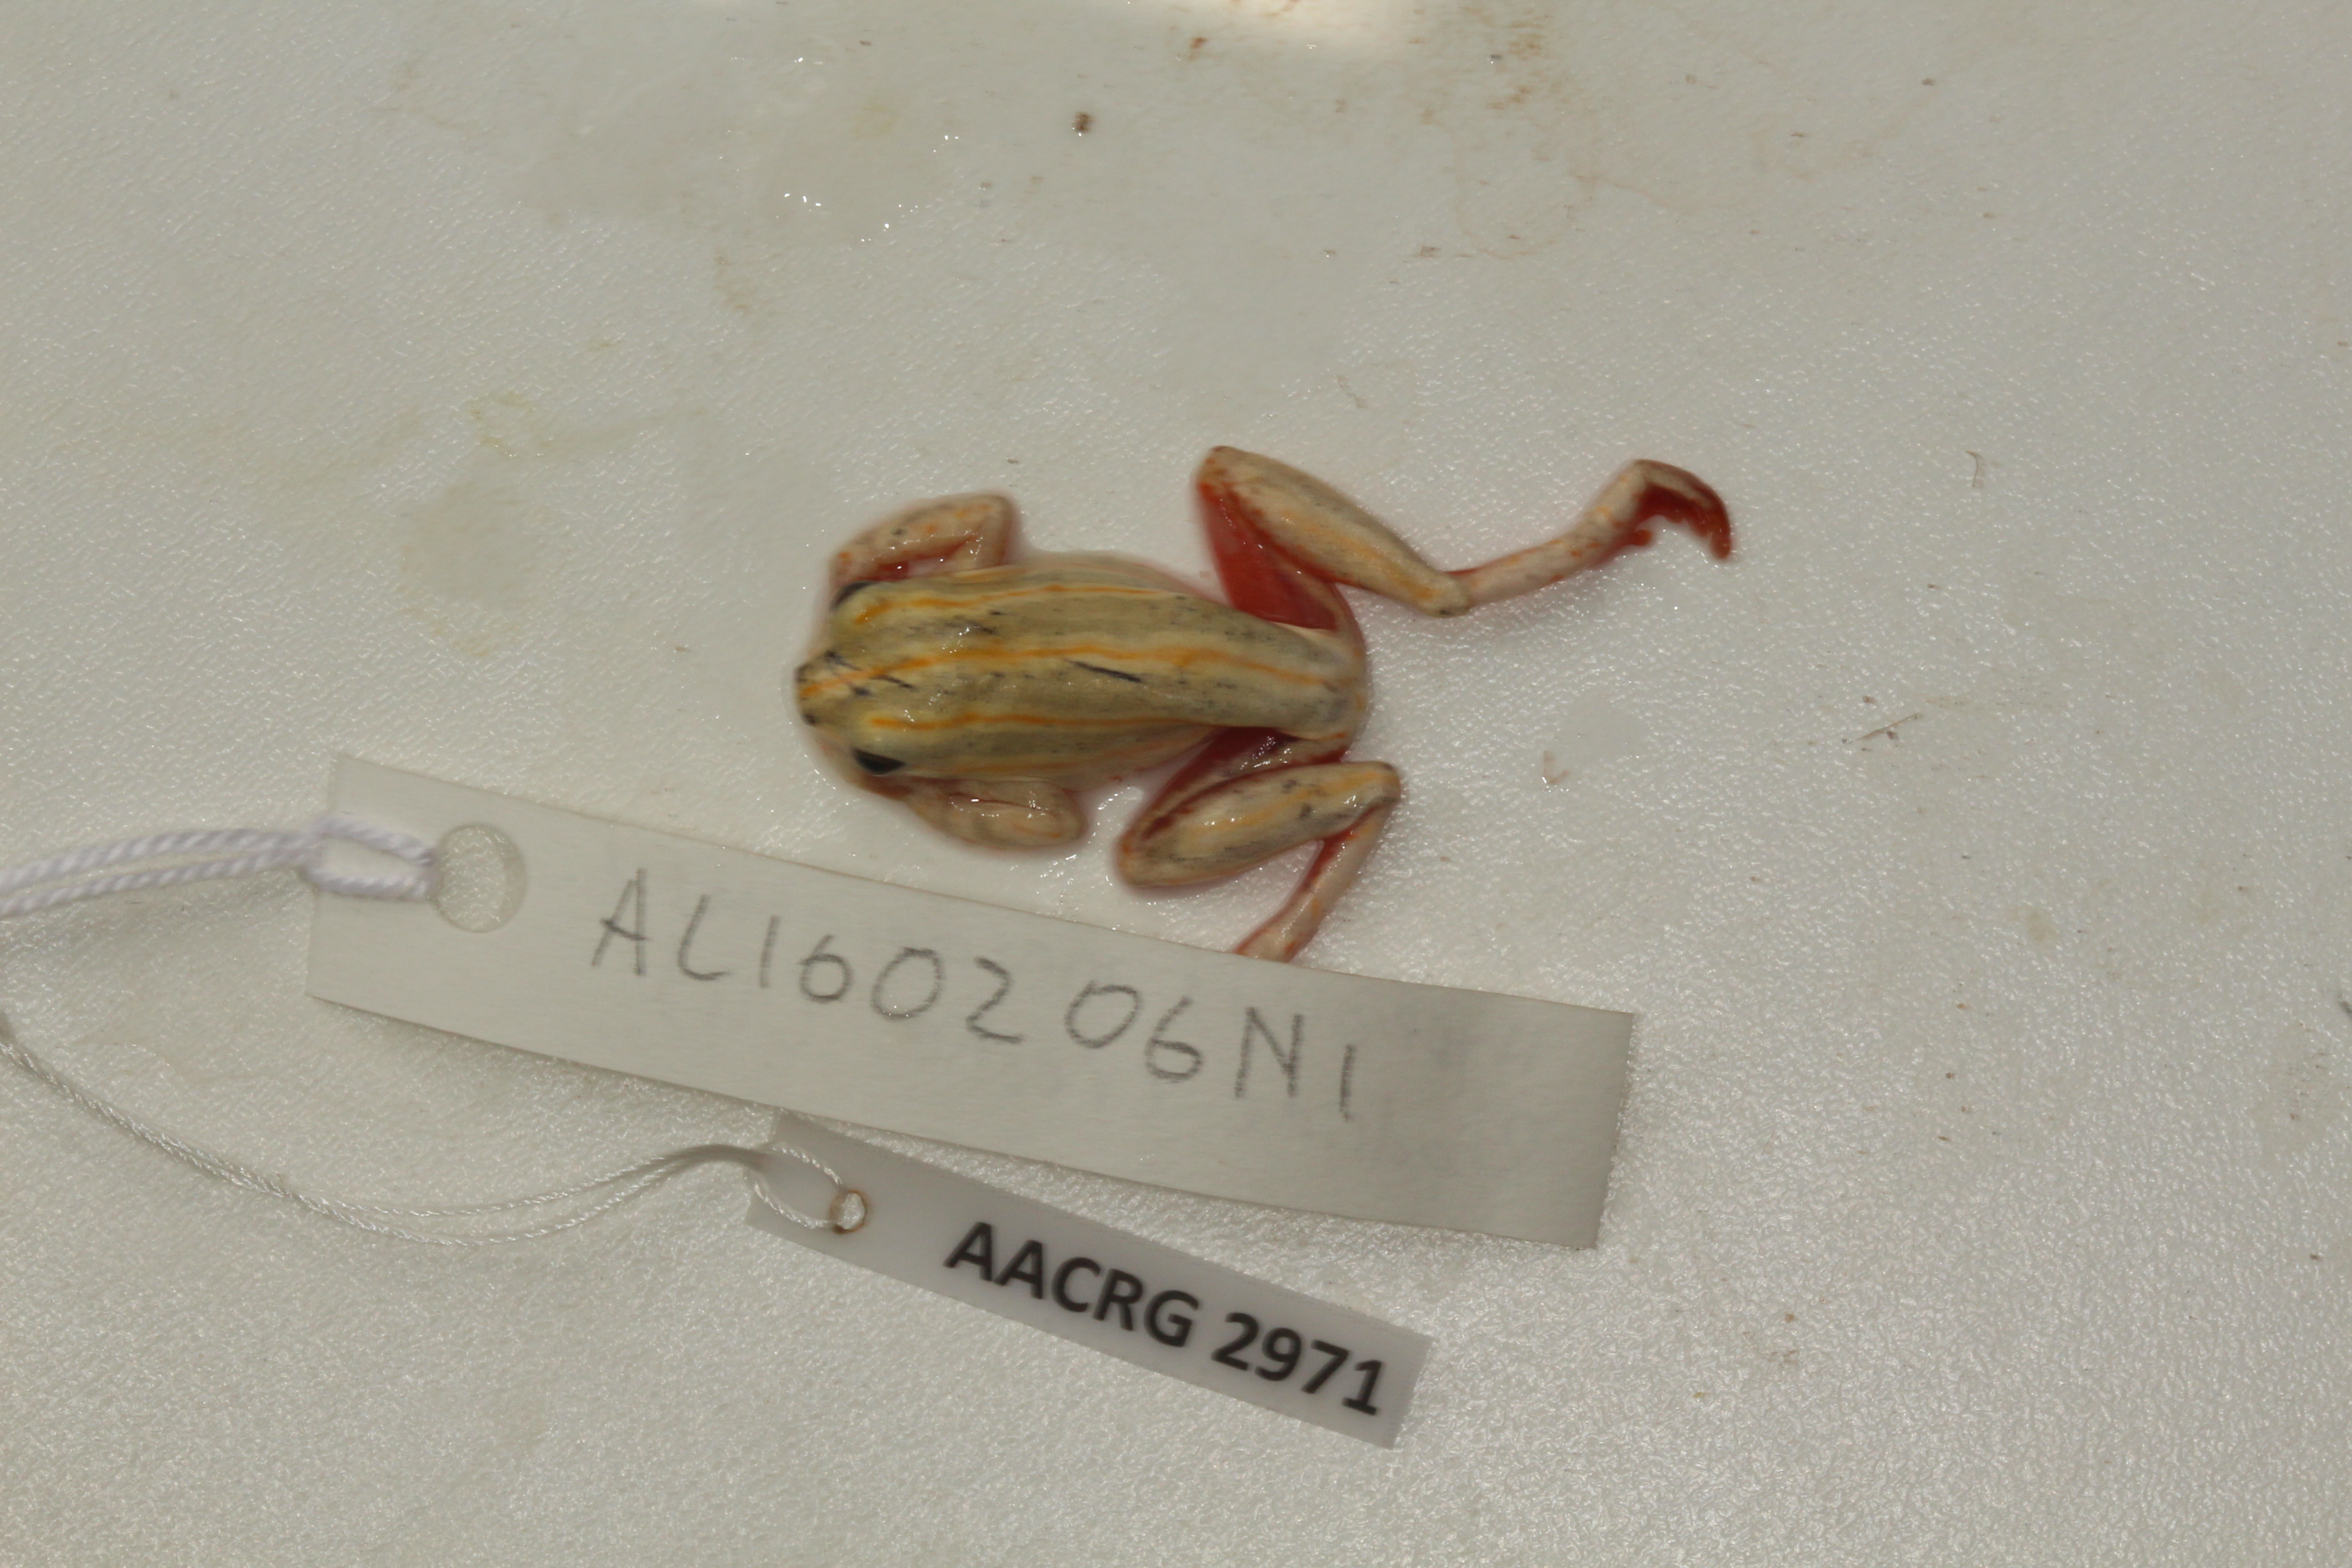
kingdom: Animalia
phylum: Chordata
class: Amphibia
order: Anura
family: Hyperoliidae
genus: Hyperolius
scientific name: Hyperolius marmoratus
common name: Painted reed frog
